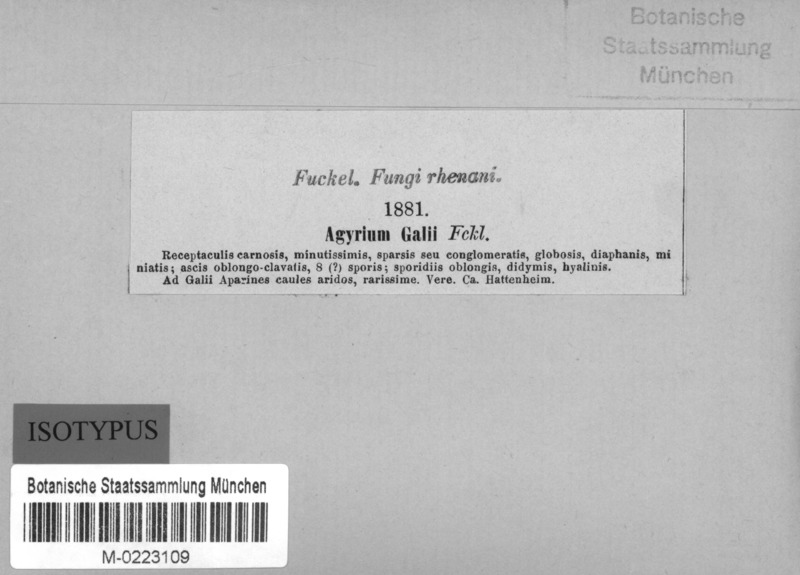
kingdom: Fungi
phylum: Ascomycota
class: Leotiomycetes
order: Helotiales
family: Calloriaceae
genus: Calloria
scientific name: Calloria
